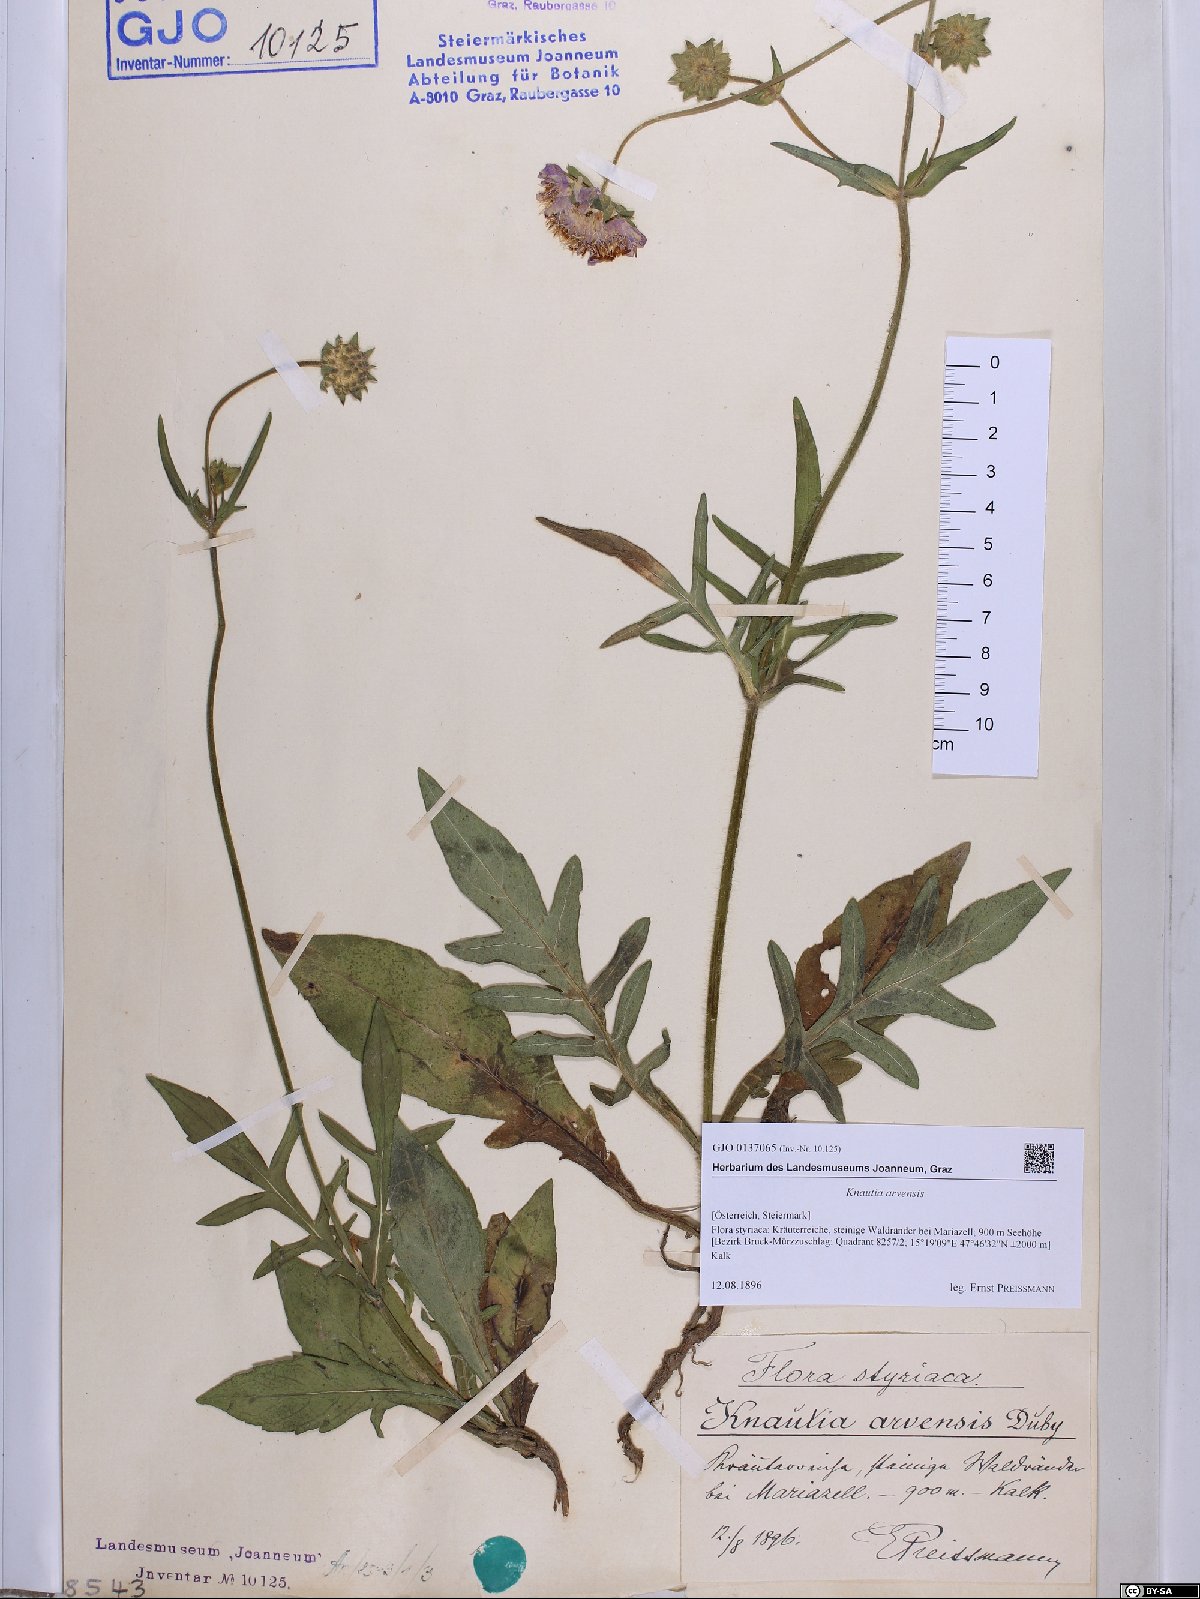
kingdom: Plantae
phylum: Tracheophyta
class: Magnoliopsida
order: Dipsacales
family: Caprifoliaceae
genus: Knautia
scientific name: Knautia arvensis
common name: Field scabiosa
